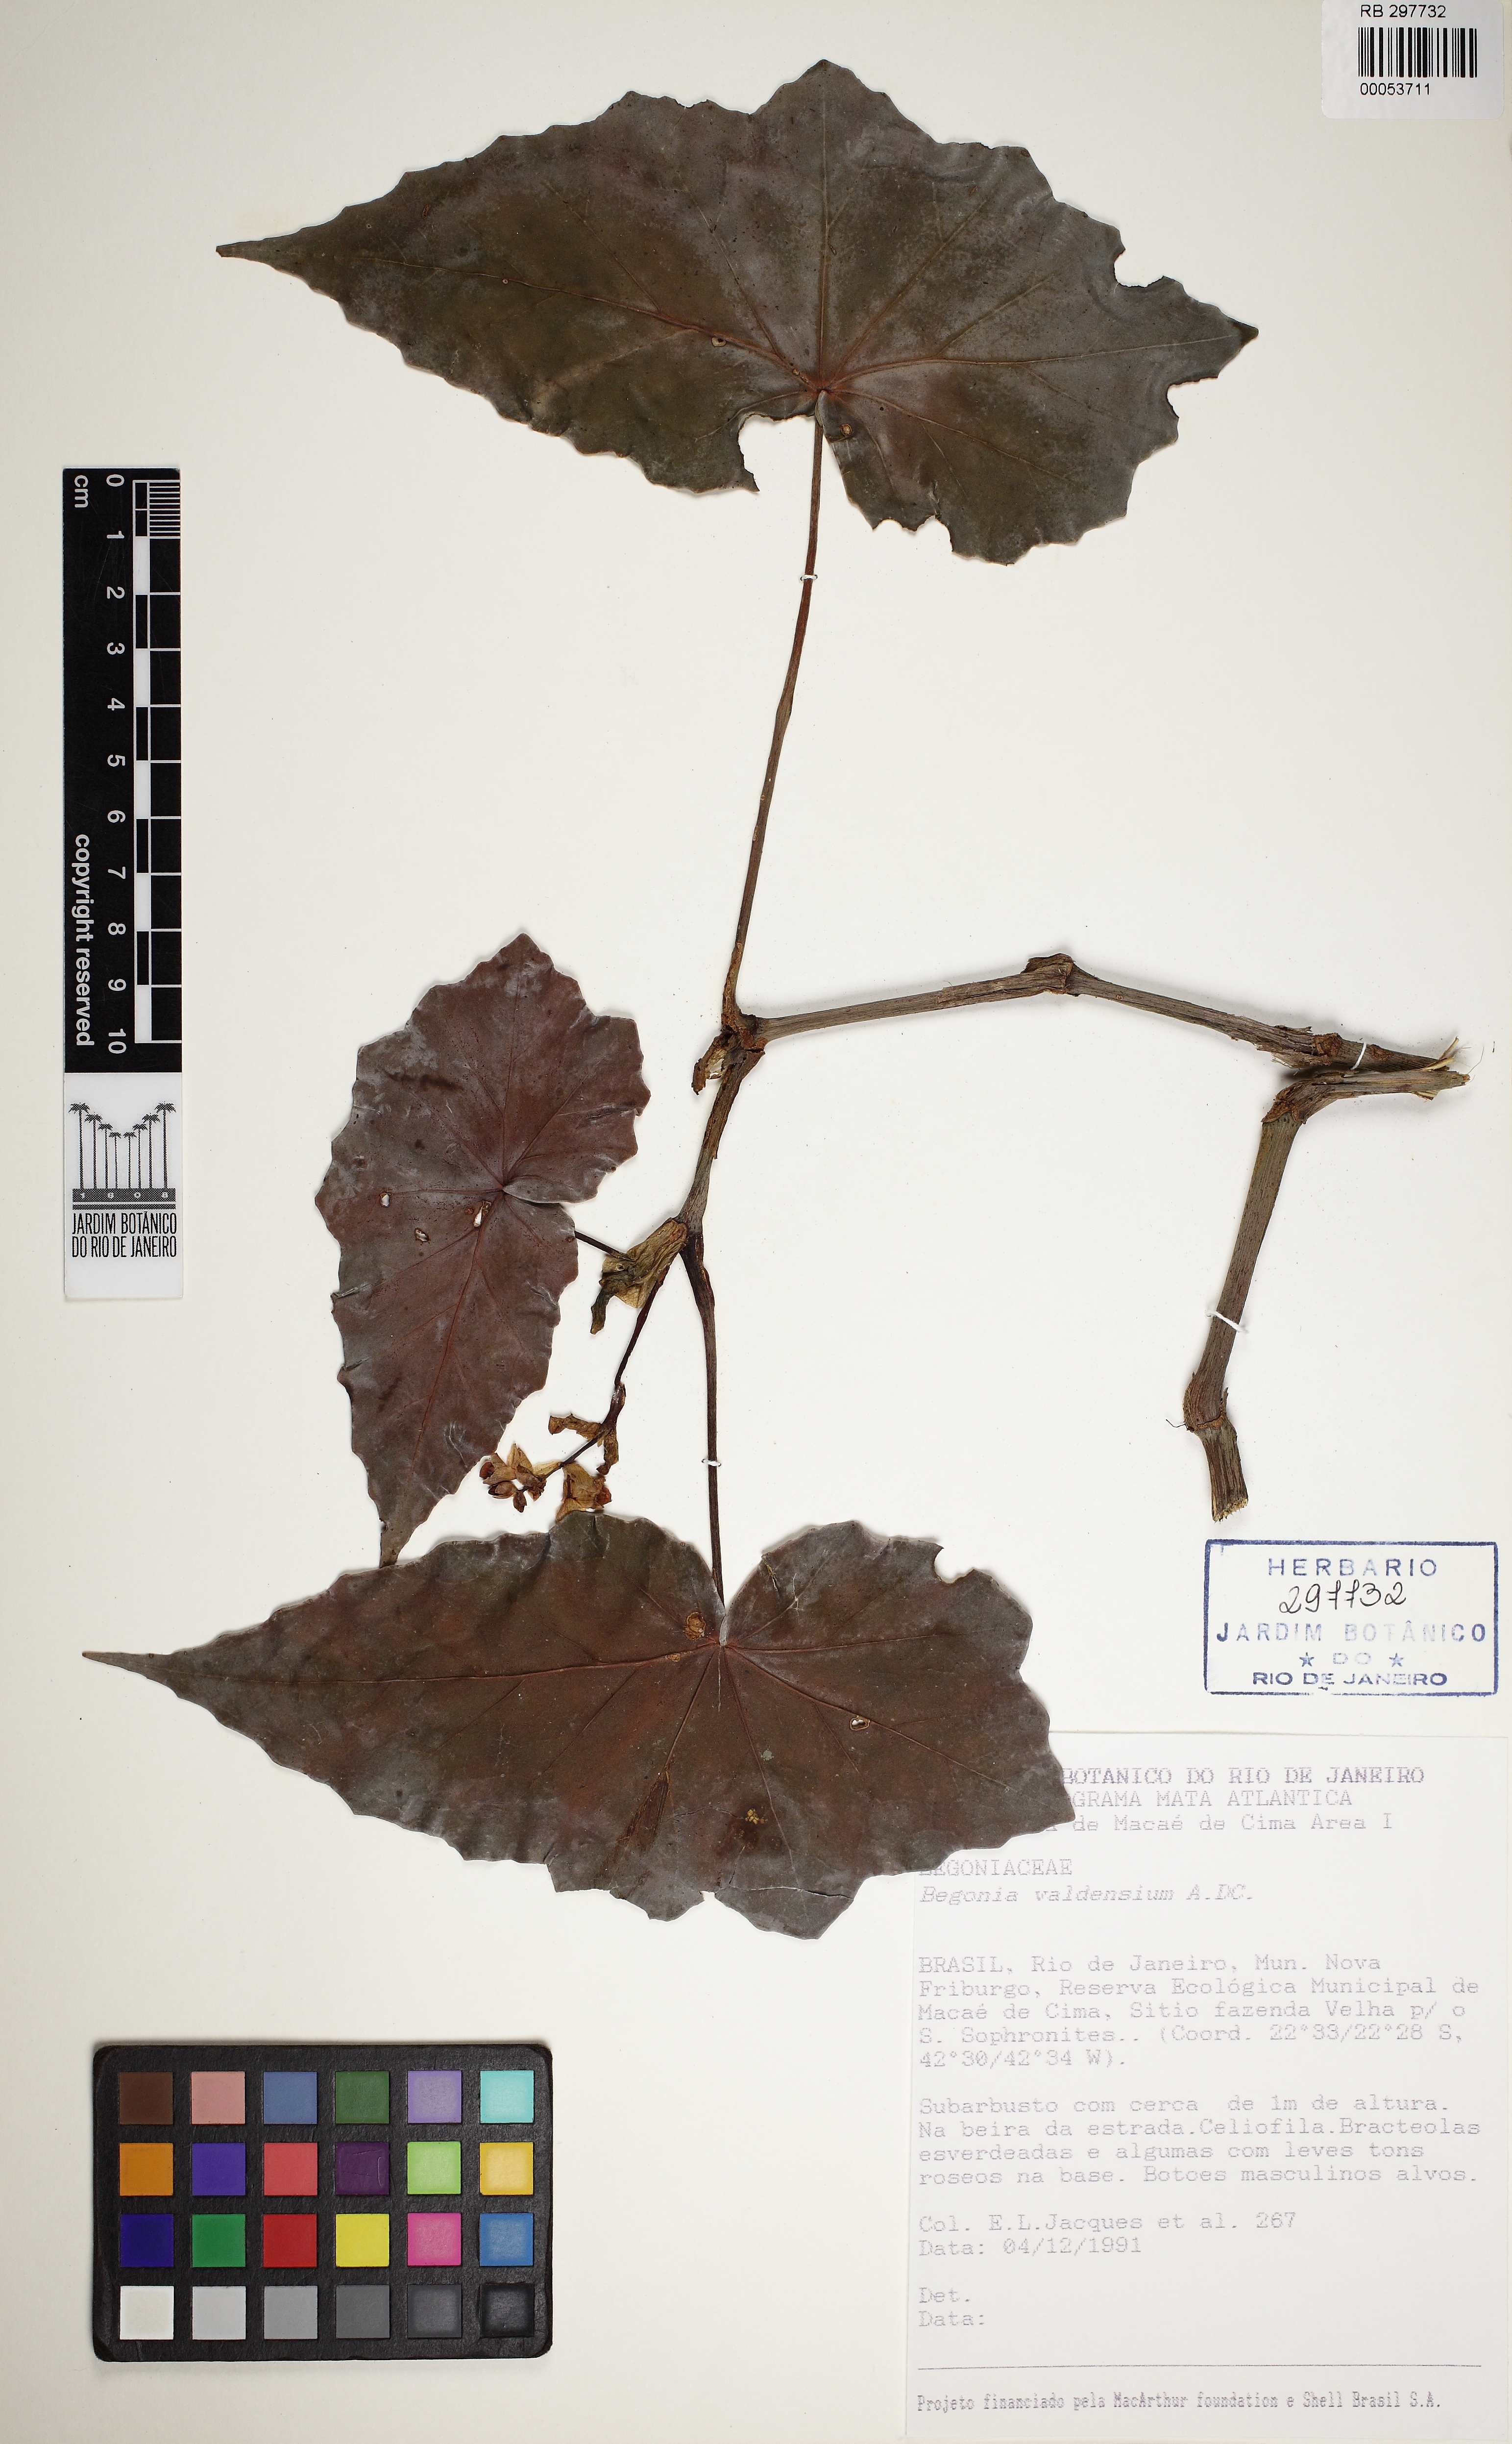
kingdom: Plantae
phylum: Tracheophyta
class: Magnoliopsida
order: Cucurbitales
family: Begoniaceae
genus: Begonia
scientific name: Begonia valdensium
